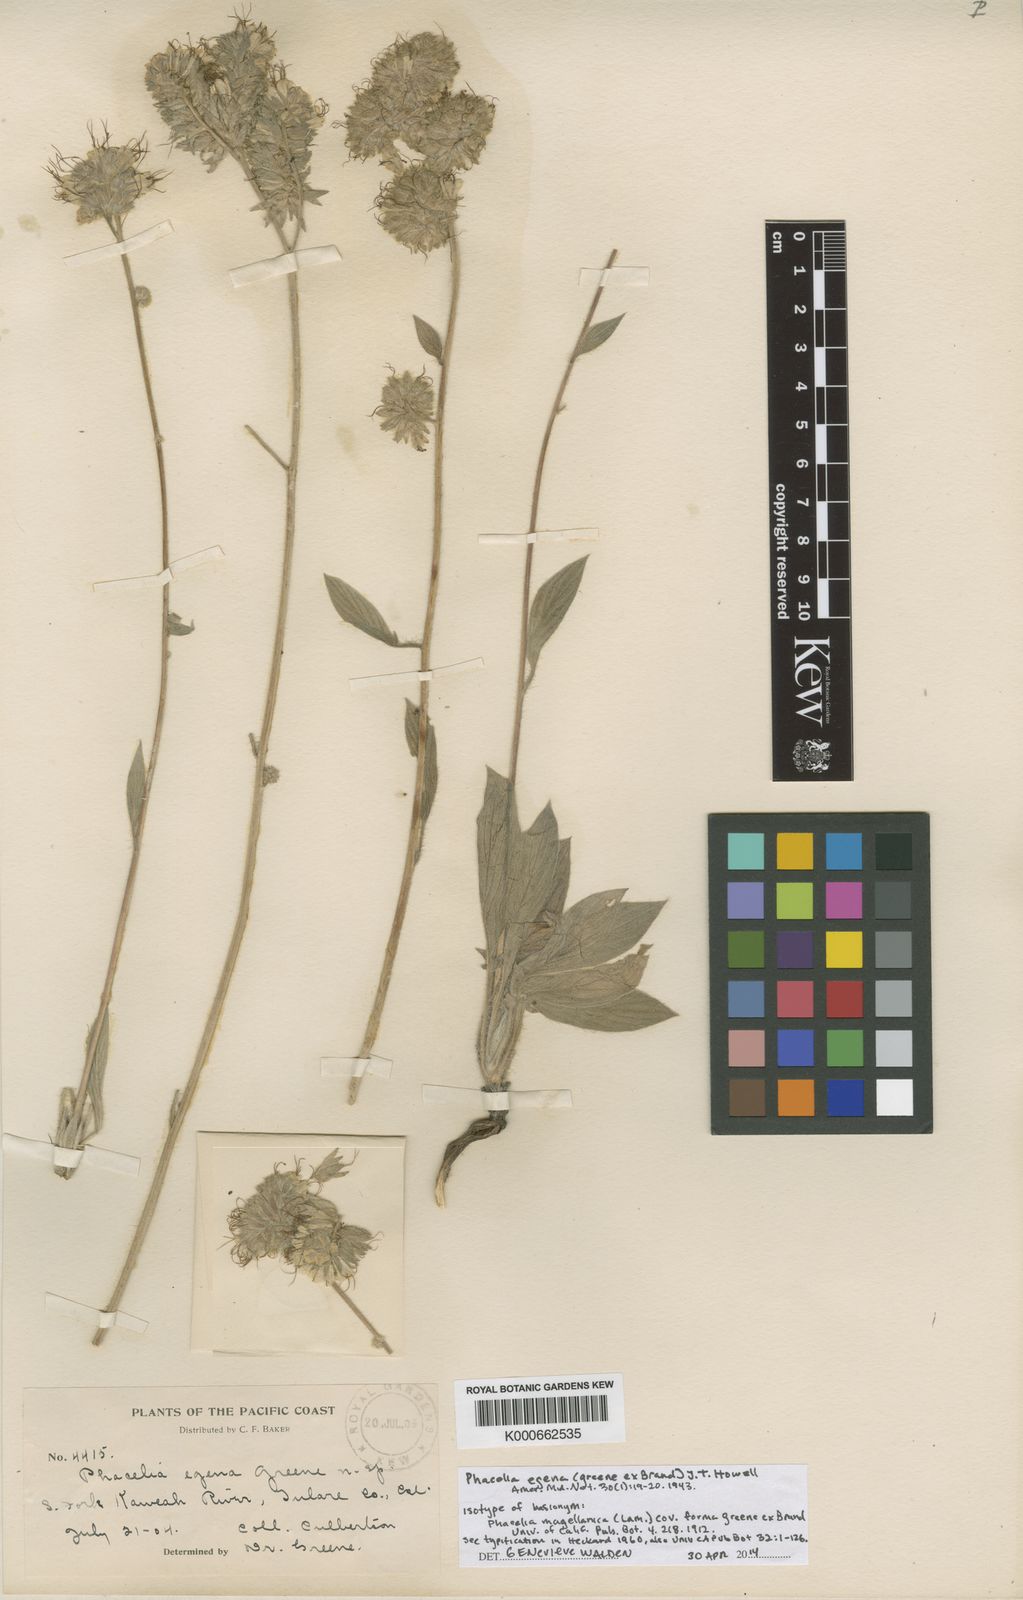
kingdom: Plantae
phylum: Tracheophyta
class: Magnoliopsida
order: Boraginales
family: Hydrophyllaceae
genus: Phacelia
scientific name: Phacelia
